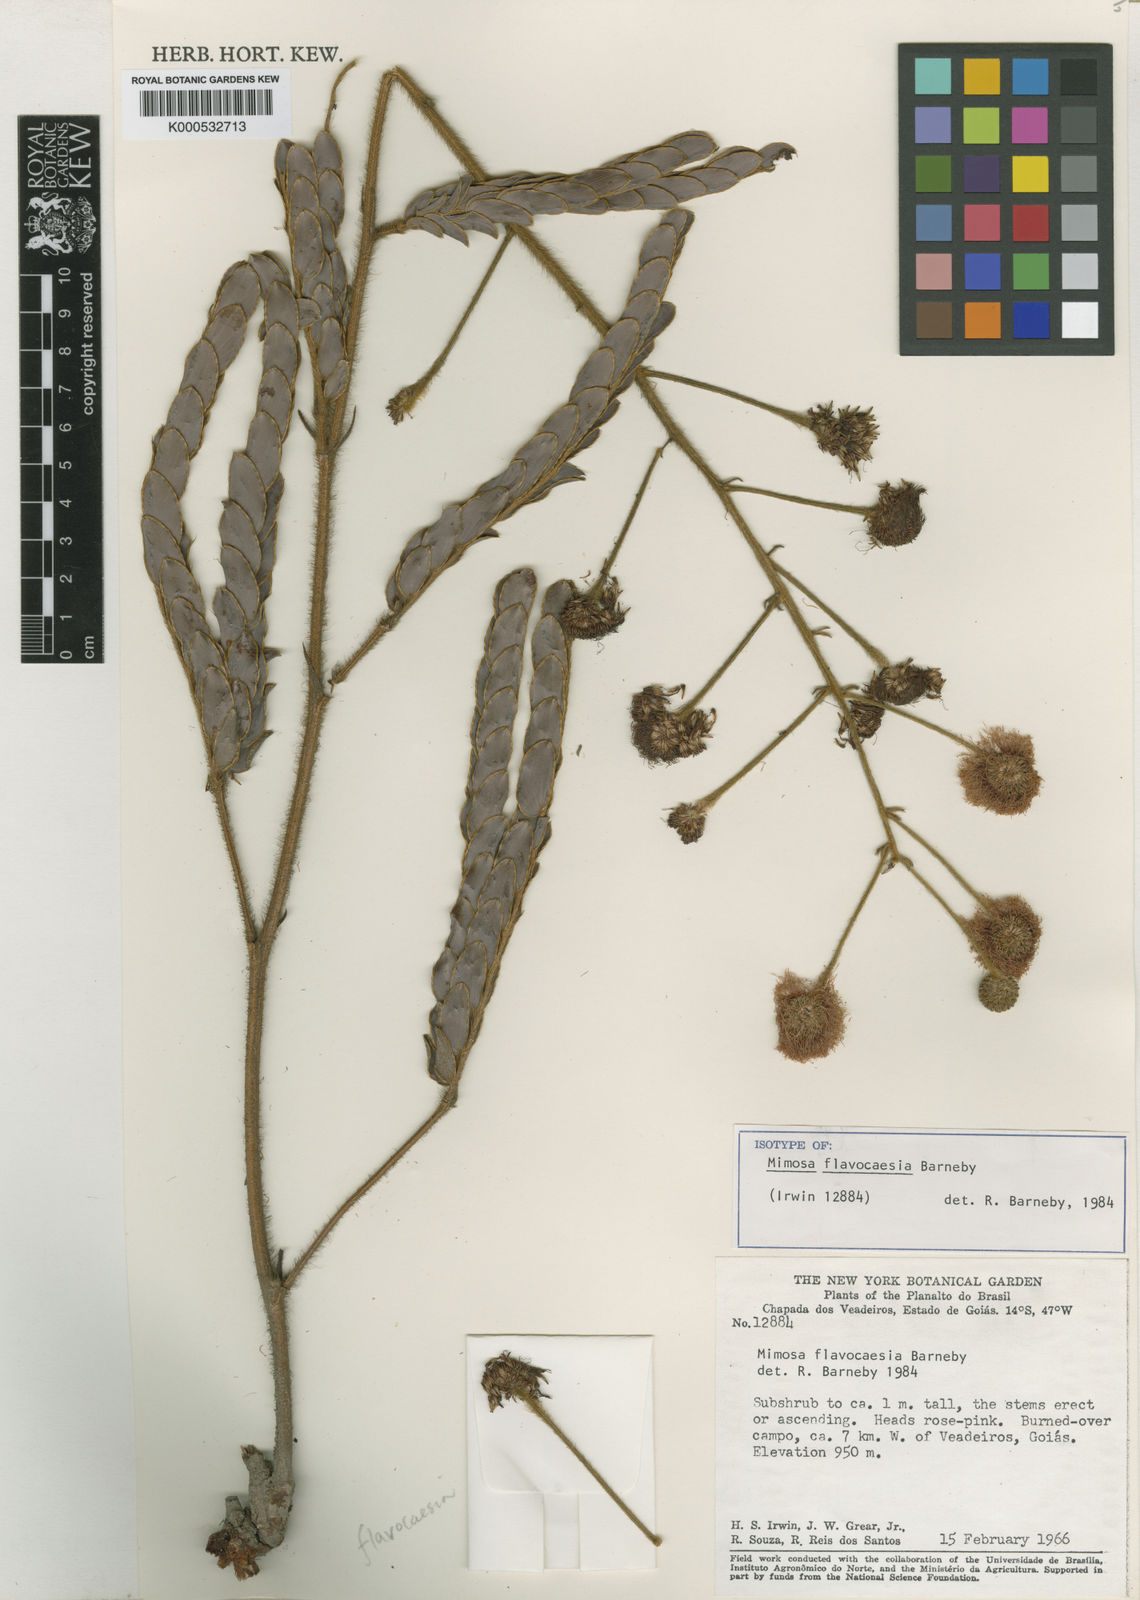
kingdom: Plantae
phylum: Tracheophyta
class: Magnoliopsida
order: Fabales
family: Fabaceae
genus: Mimosa
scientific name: Mimosa flavocaesia
